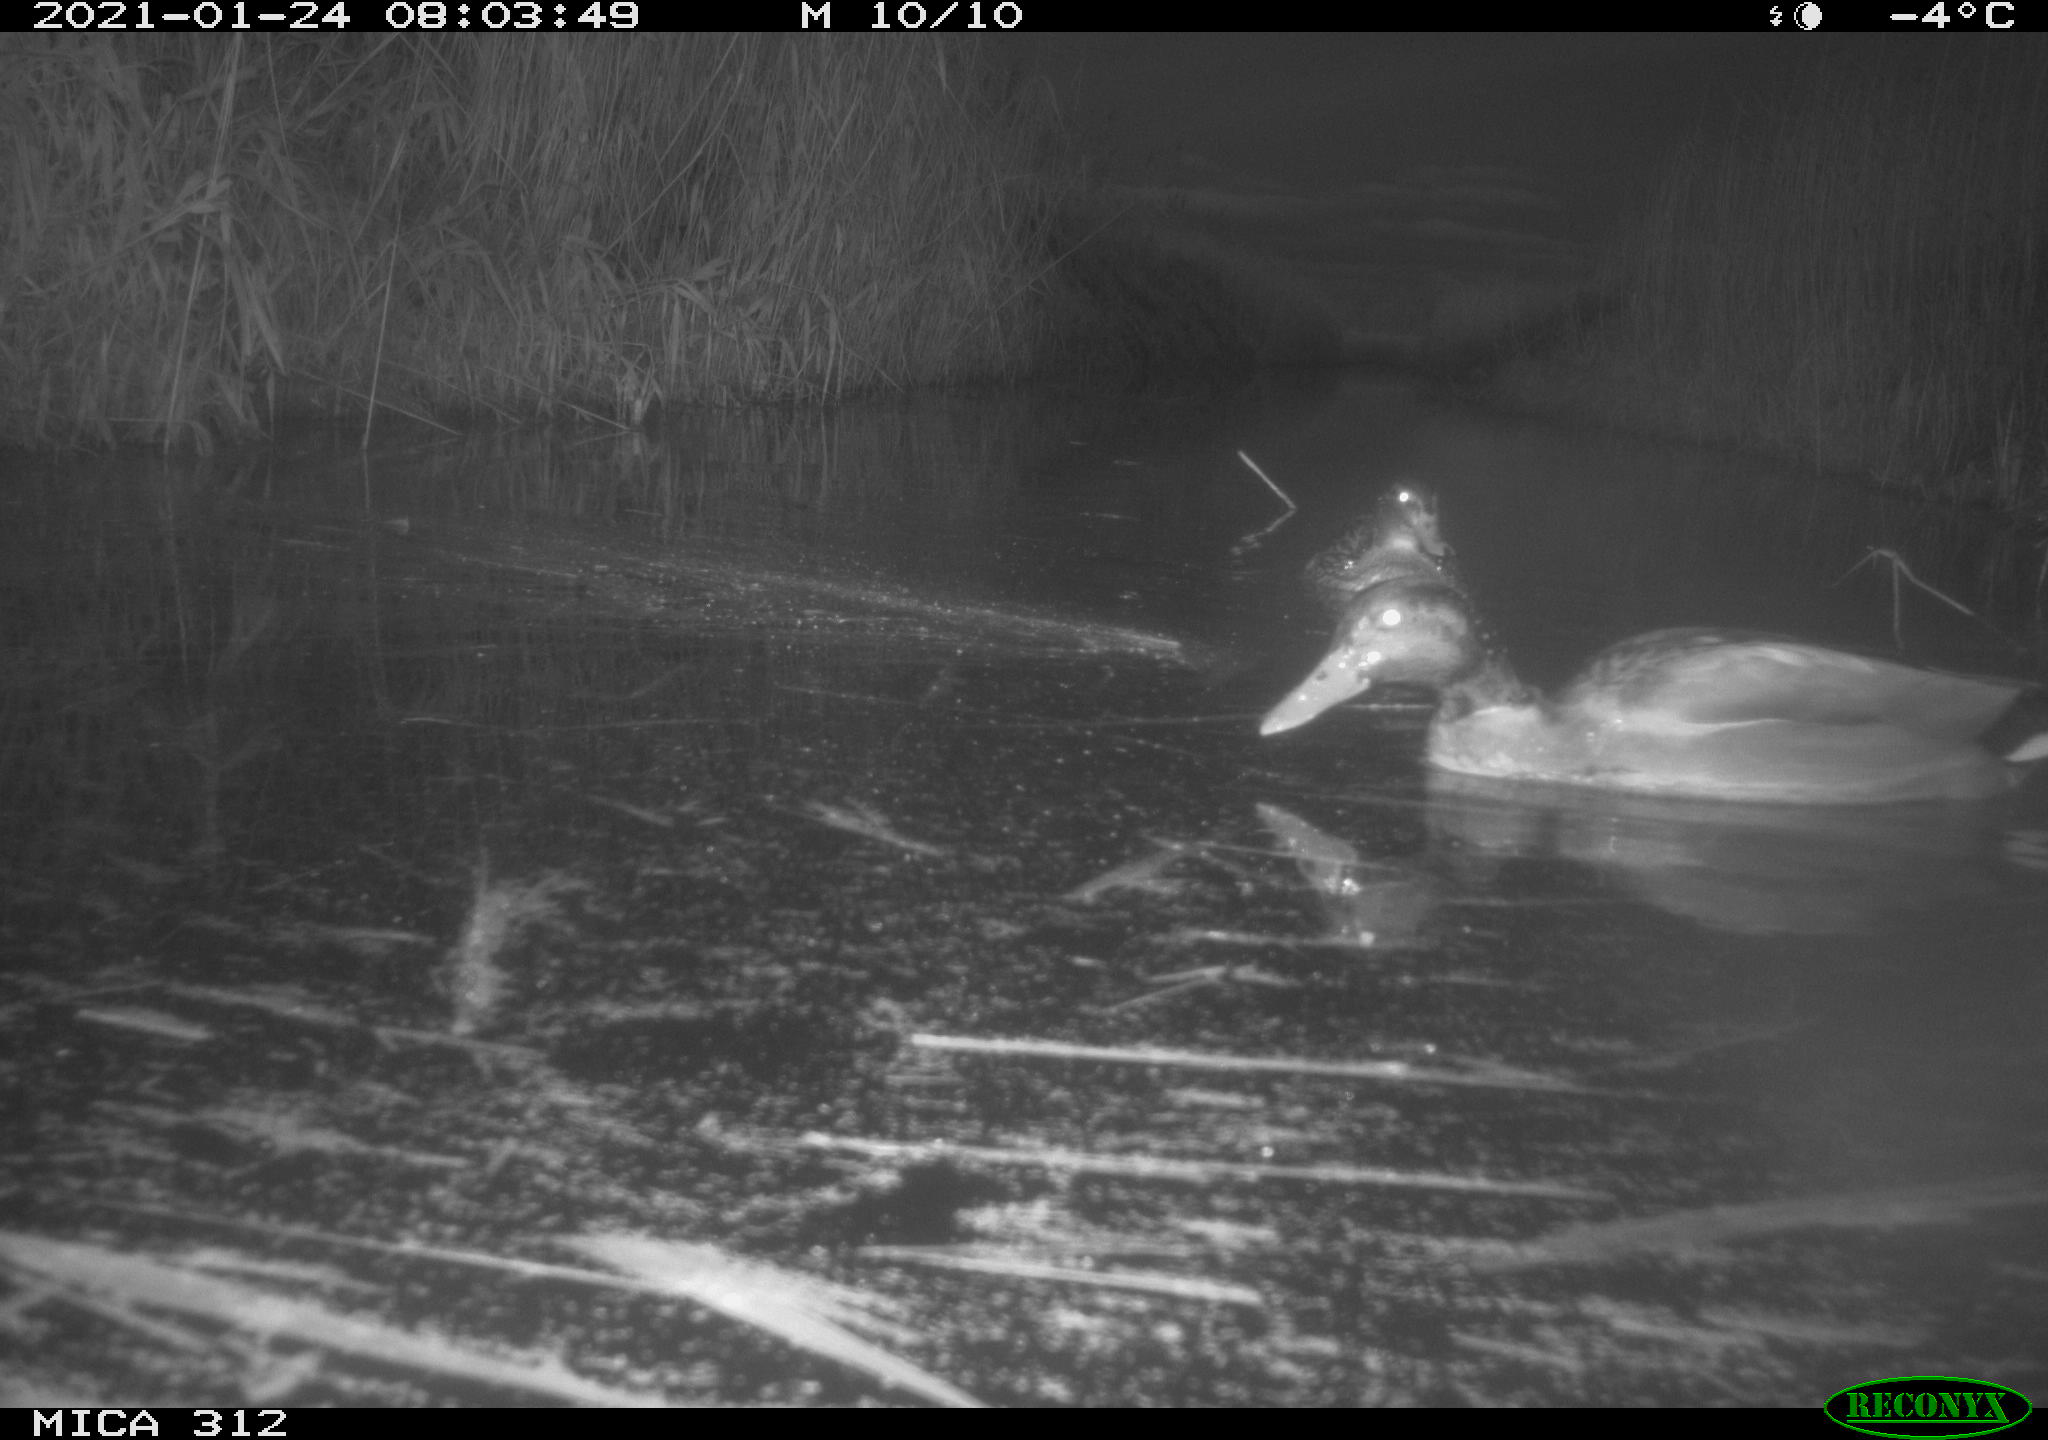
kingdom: Animalia
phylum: Chordata
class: Aves
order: Anseriformes
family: Anatidae
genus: Anas
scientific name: Anas platyrhynchos
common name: Mallard
